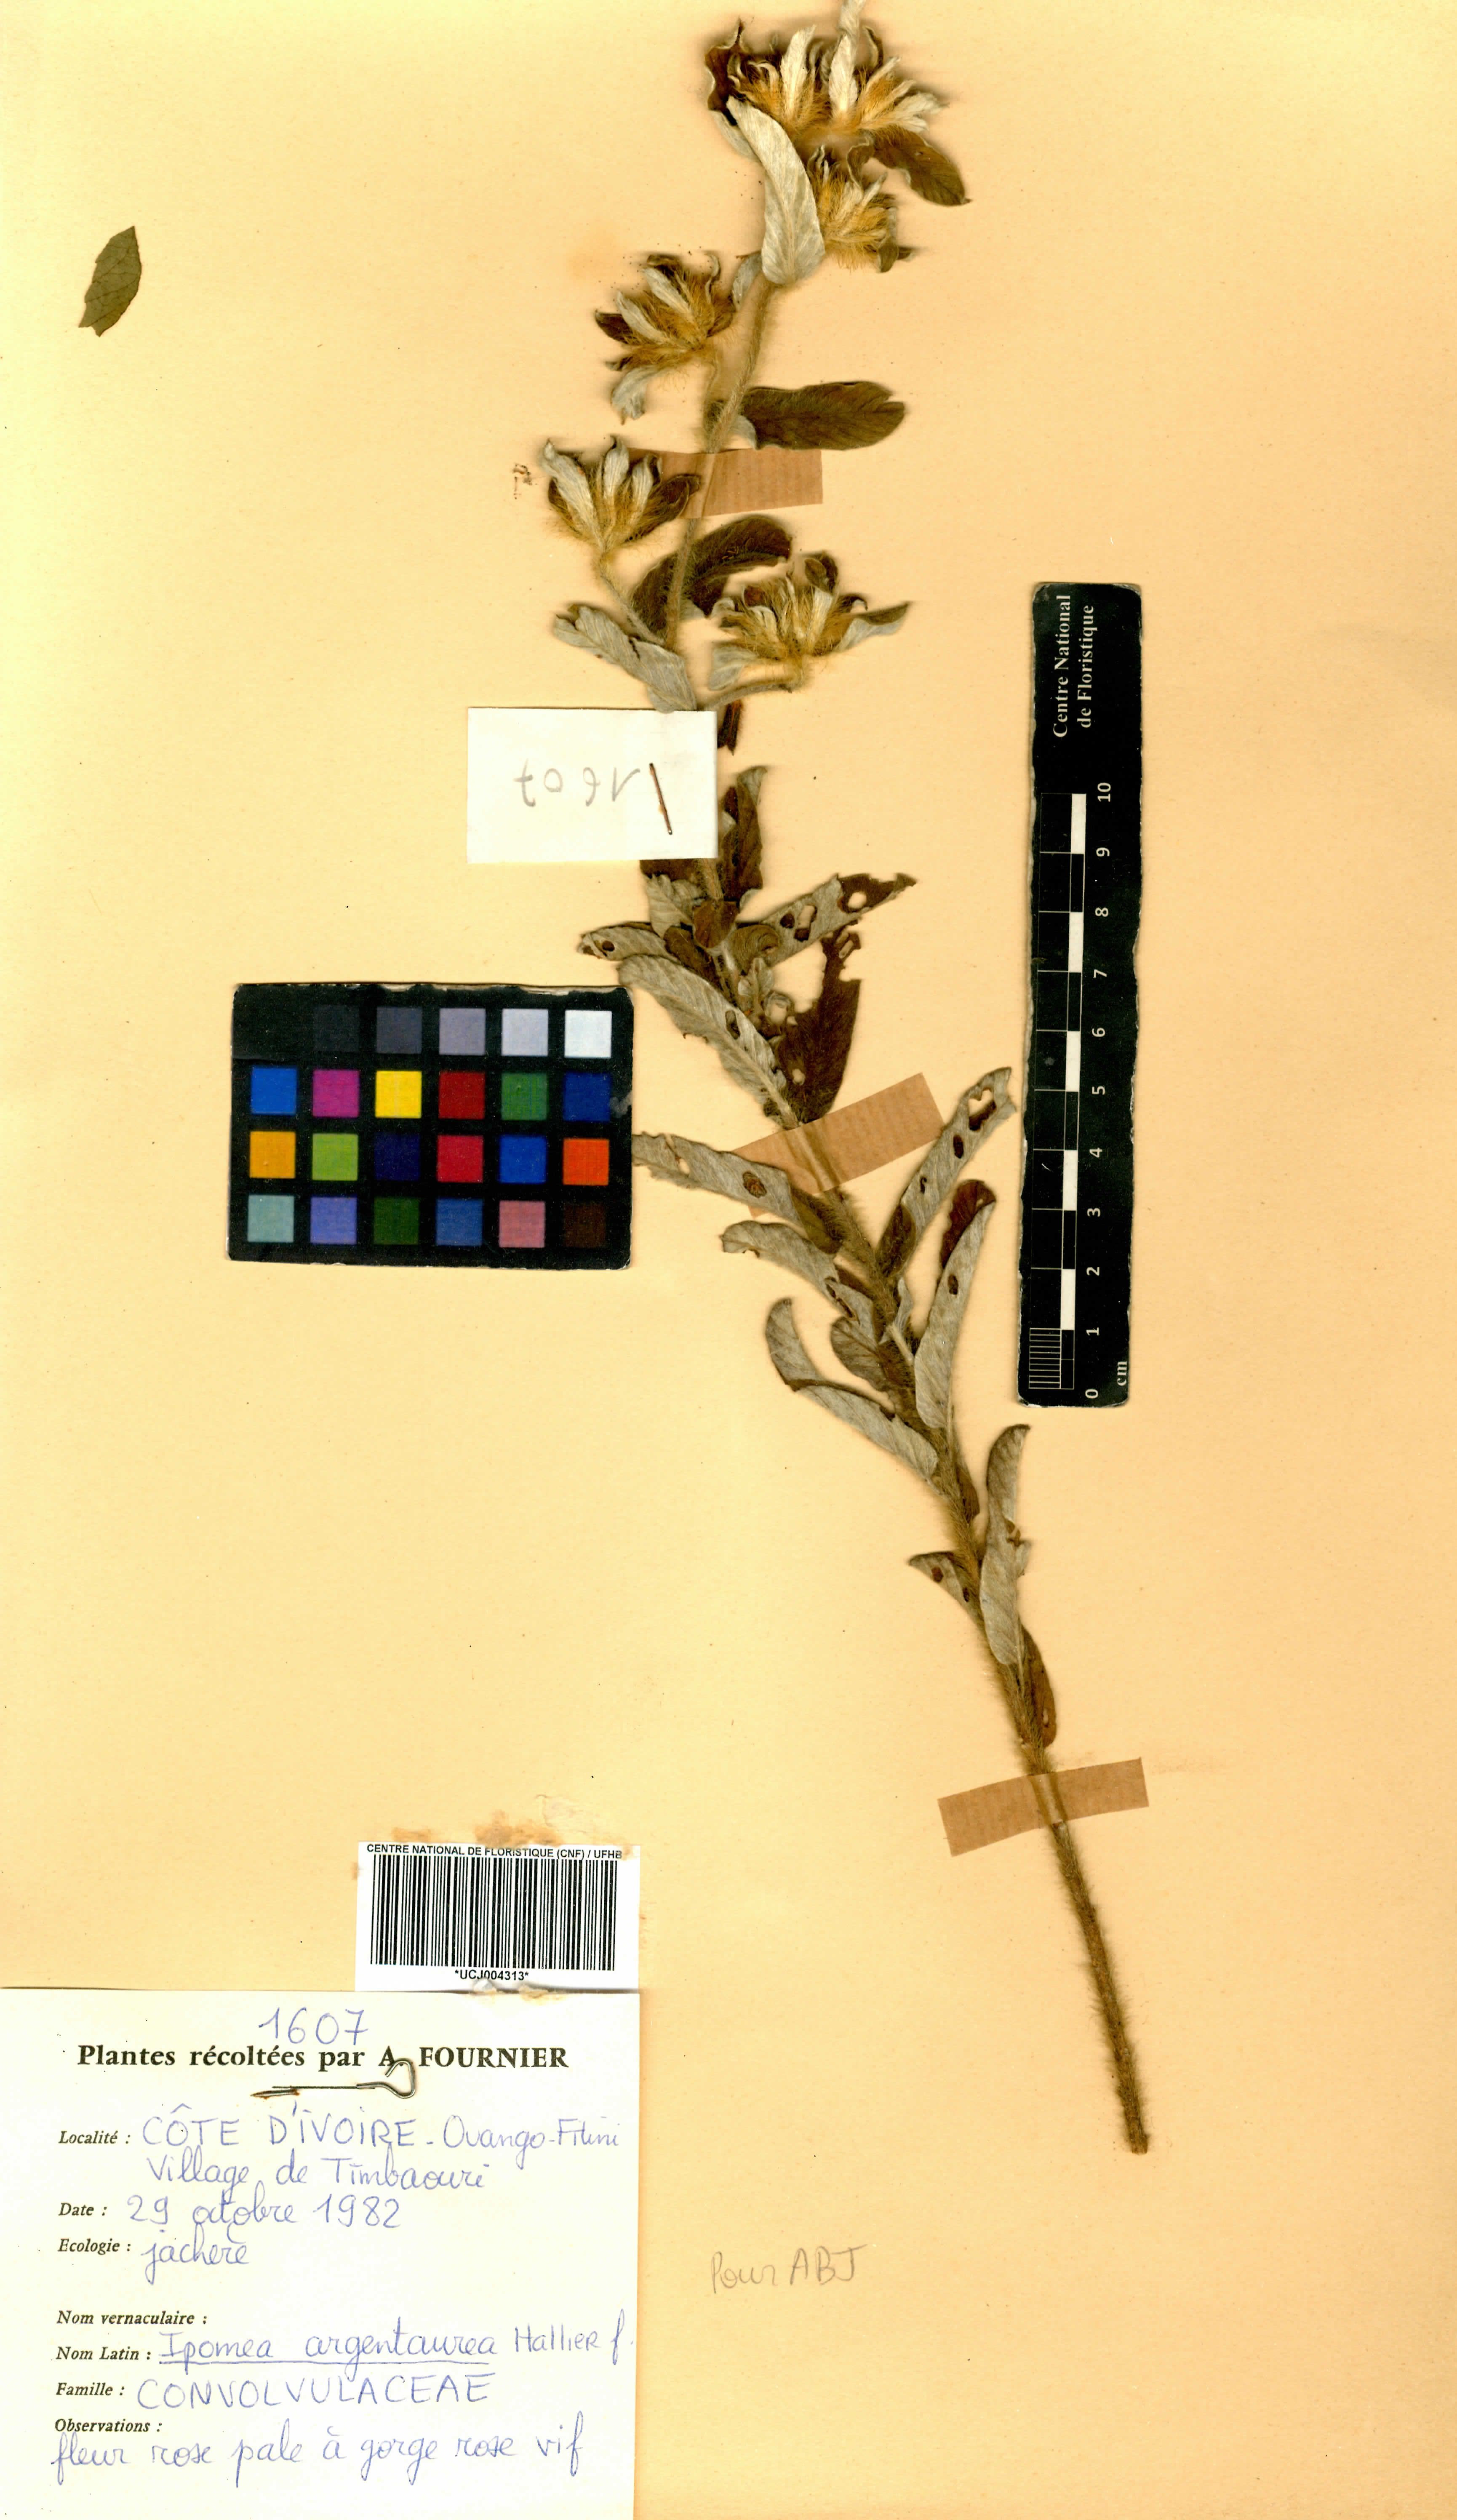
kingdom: Plantae
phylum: Tracheophyta
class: Magnoliopsida
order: Solanales
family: Convolvulaceae
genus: Ipomoea
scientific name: Ipomoea argentaurata
